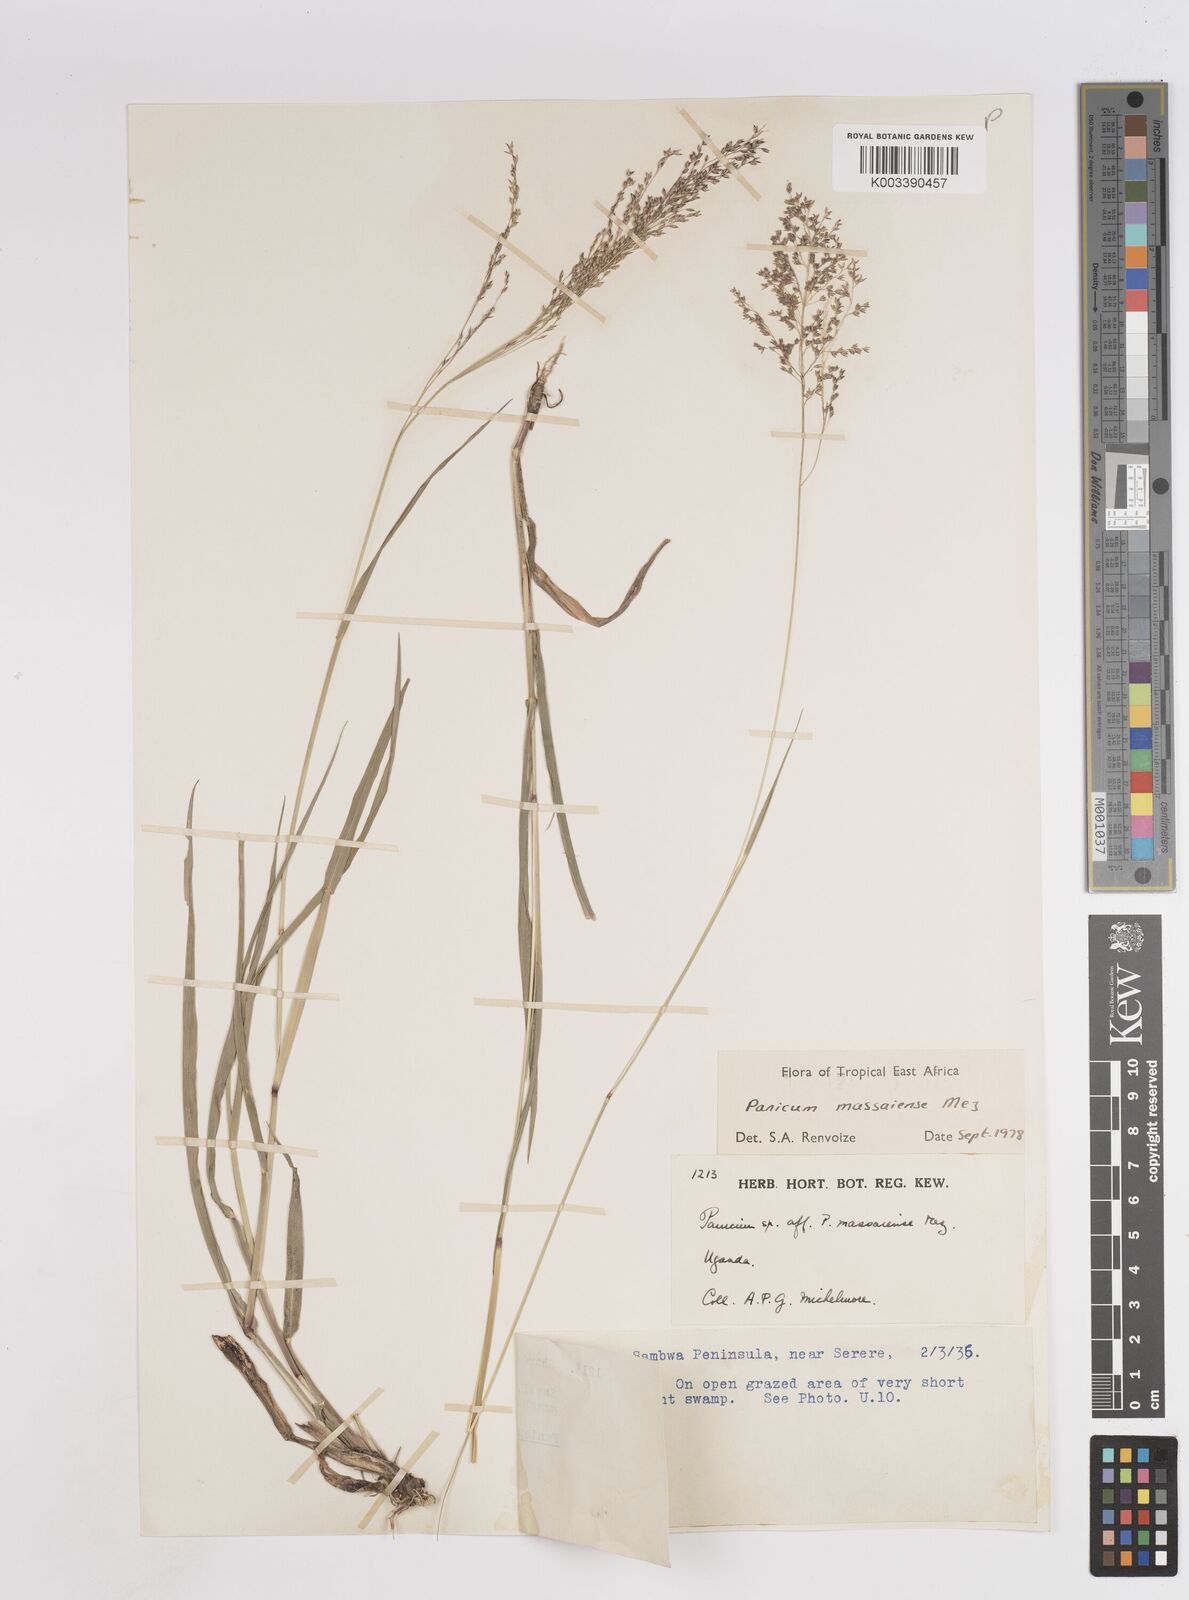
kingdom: Plantae
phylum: Tracheophyta
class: Liliopsida
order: Poales
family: Poaceae
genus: Panicum
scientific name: Panicum massaiense
